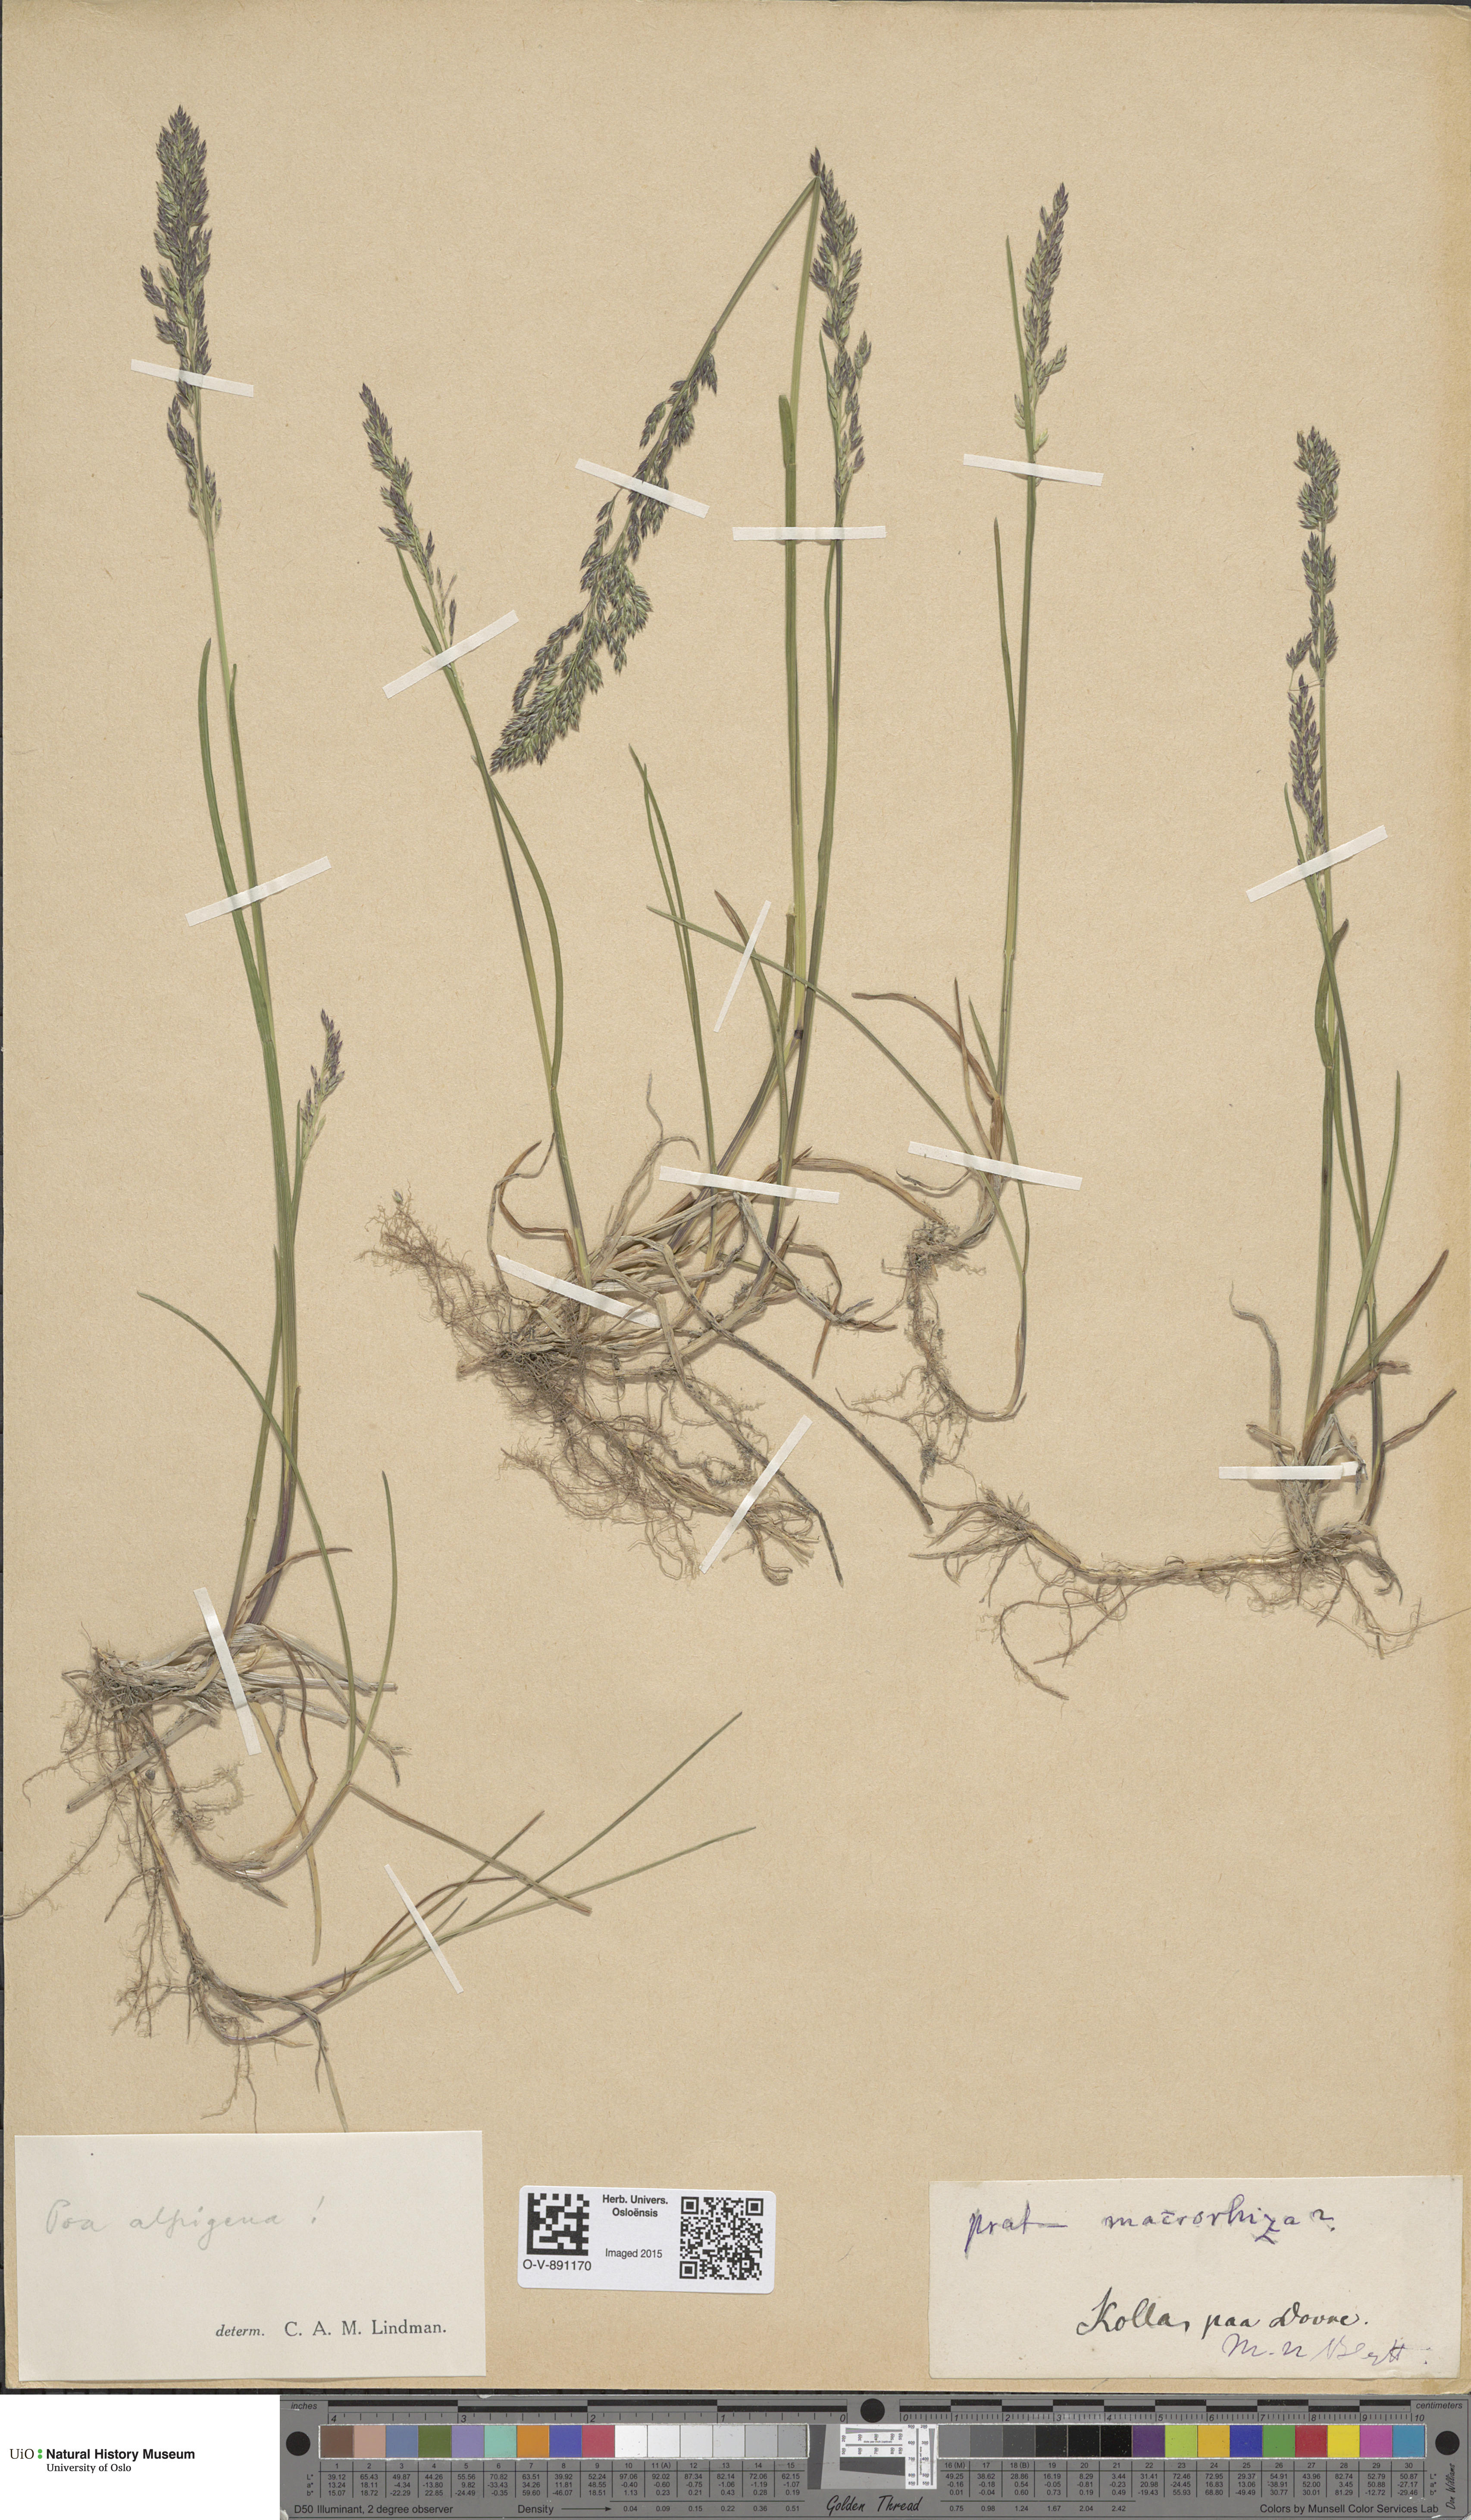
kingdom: Plantae
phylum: Tracheophyta
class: Liliopsida
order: Poales
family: Poaceae
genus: Poa
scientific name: Poa alpigena
